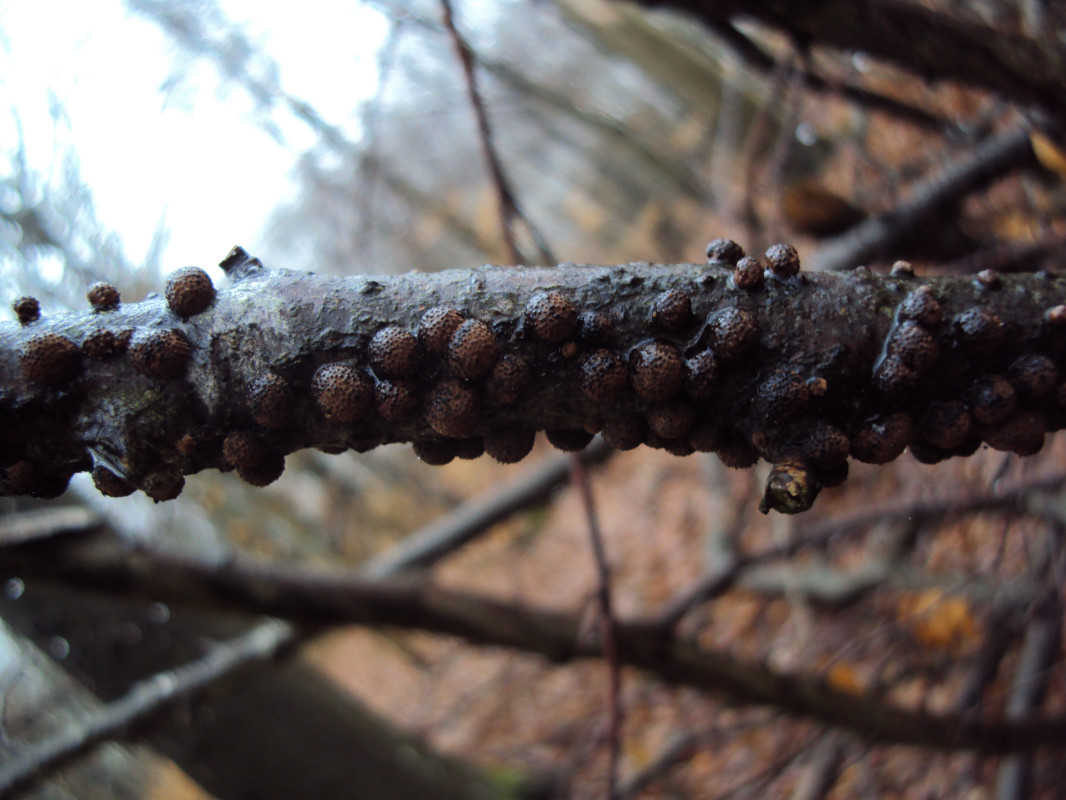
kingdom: Fungi
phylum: Ascomycota
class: Sordariomycetes
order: Xylariales
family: Hypoxylaceae
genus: Hypoxylon
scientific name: Hypoxylon fragiforme
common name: kuljordbær
